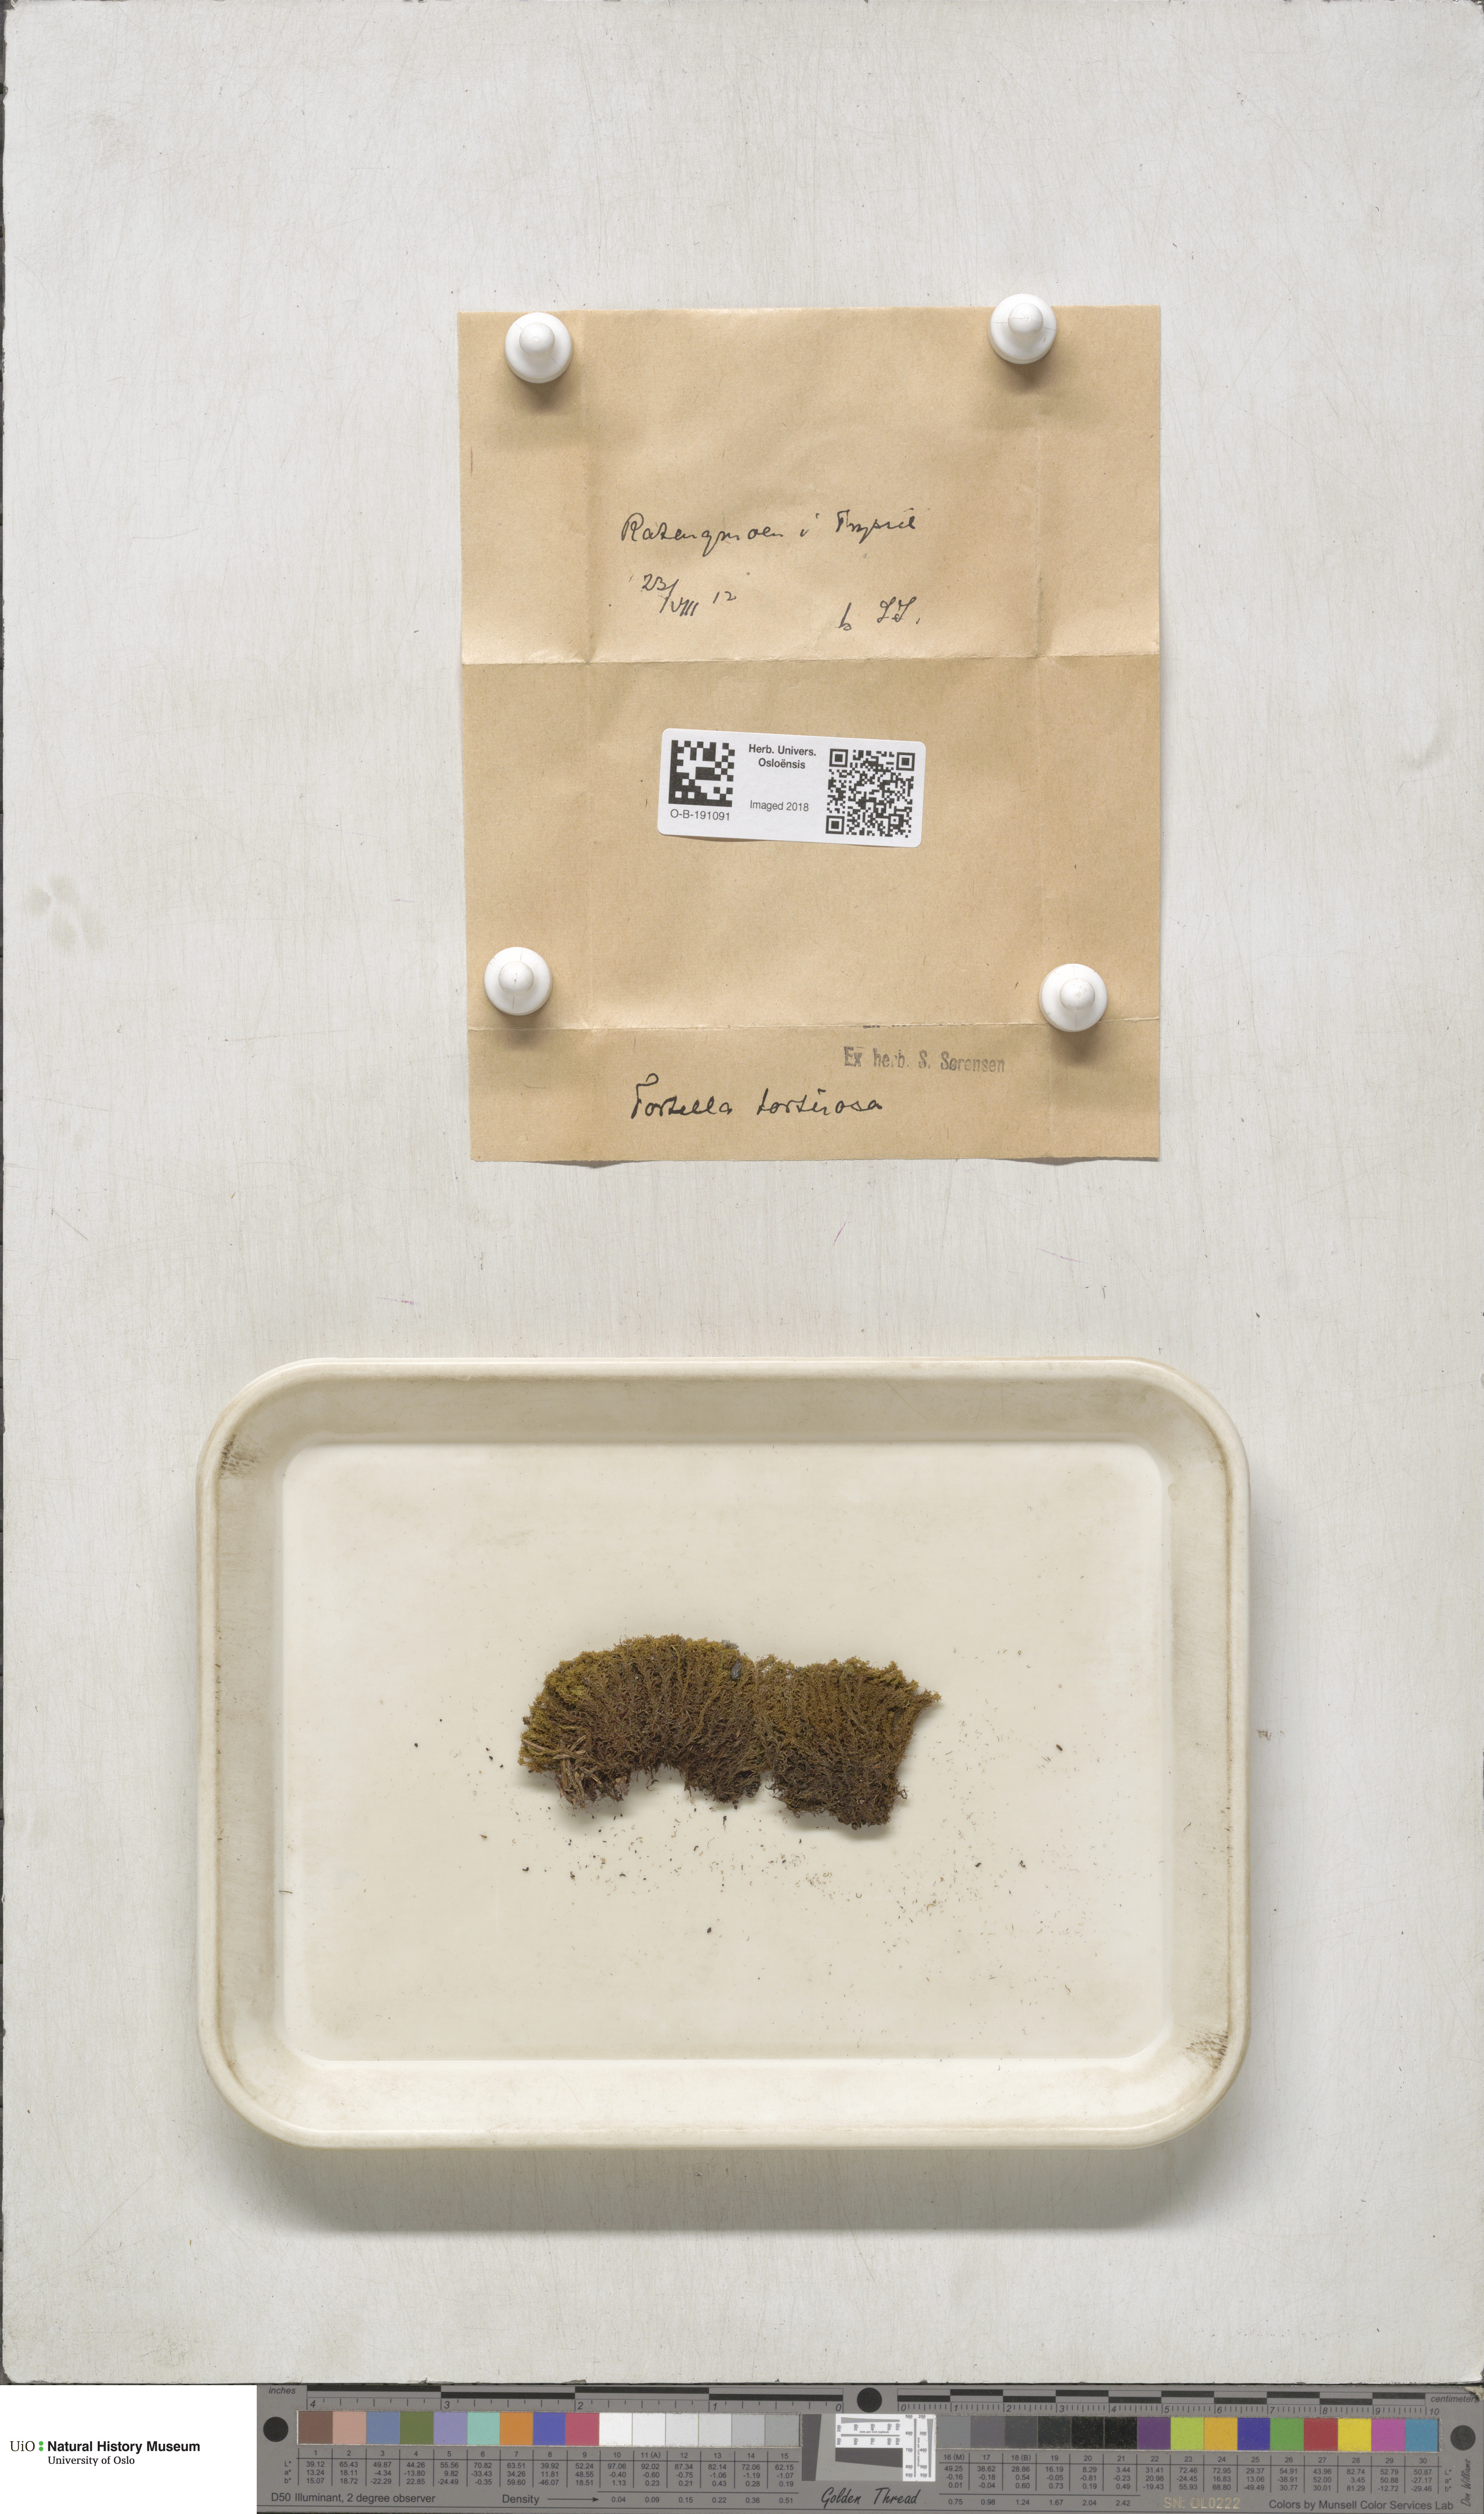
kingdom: Plantae
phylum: Bryophyta
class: Bryopsida
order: Pottiales
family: Pottiaceae
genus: Tortella
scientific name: Tortella tortuosa
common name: Frizzled crisp moss
